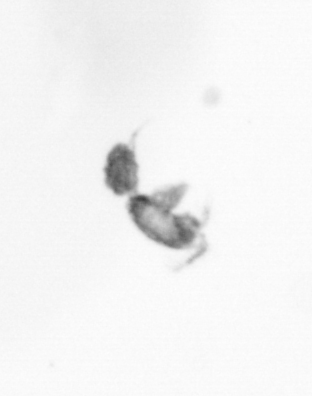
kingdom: Animalia
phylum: Arthropoda
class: Copepoda
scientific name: Copepoda
